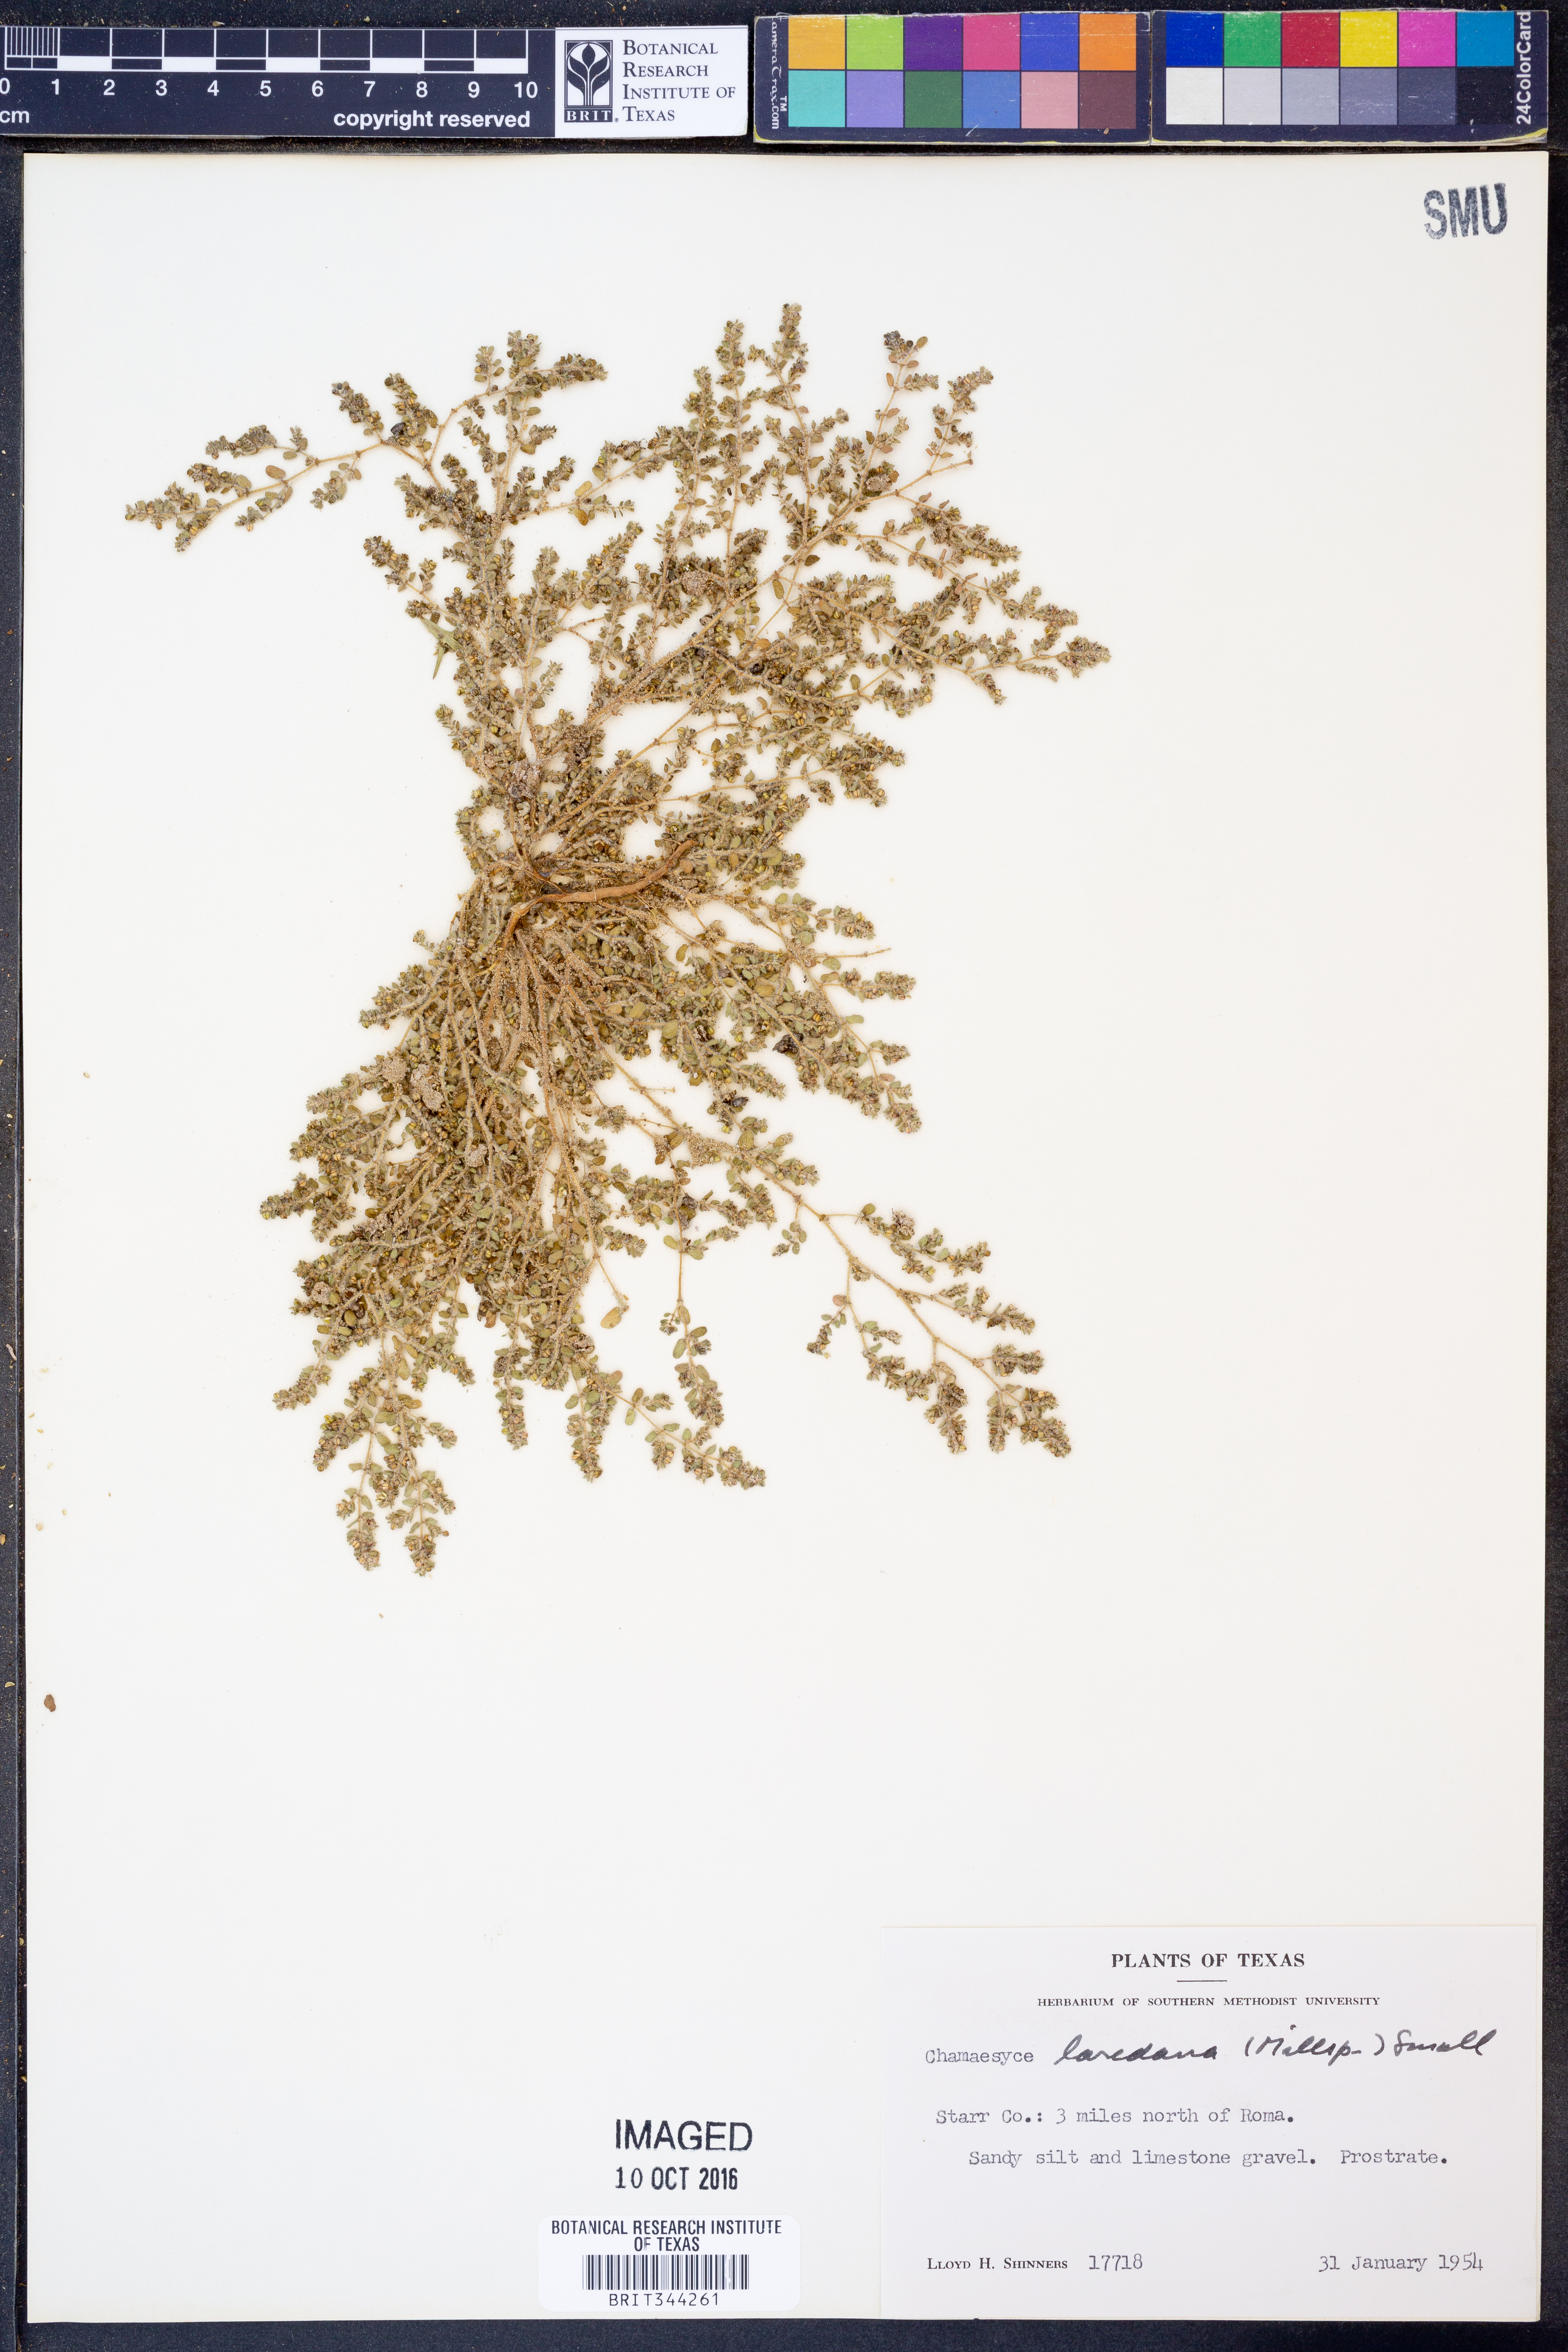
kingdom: Plantae
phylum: Tracheophyta
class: Magnoliopsida
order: Malpighiales
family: Euphorbiaceae
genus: Euphorbia
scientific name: Euphorbia laredana
